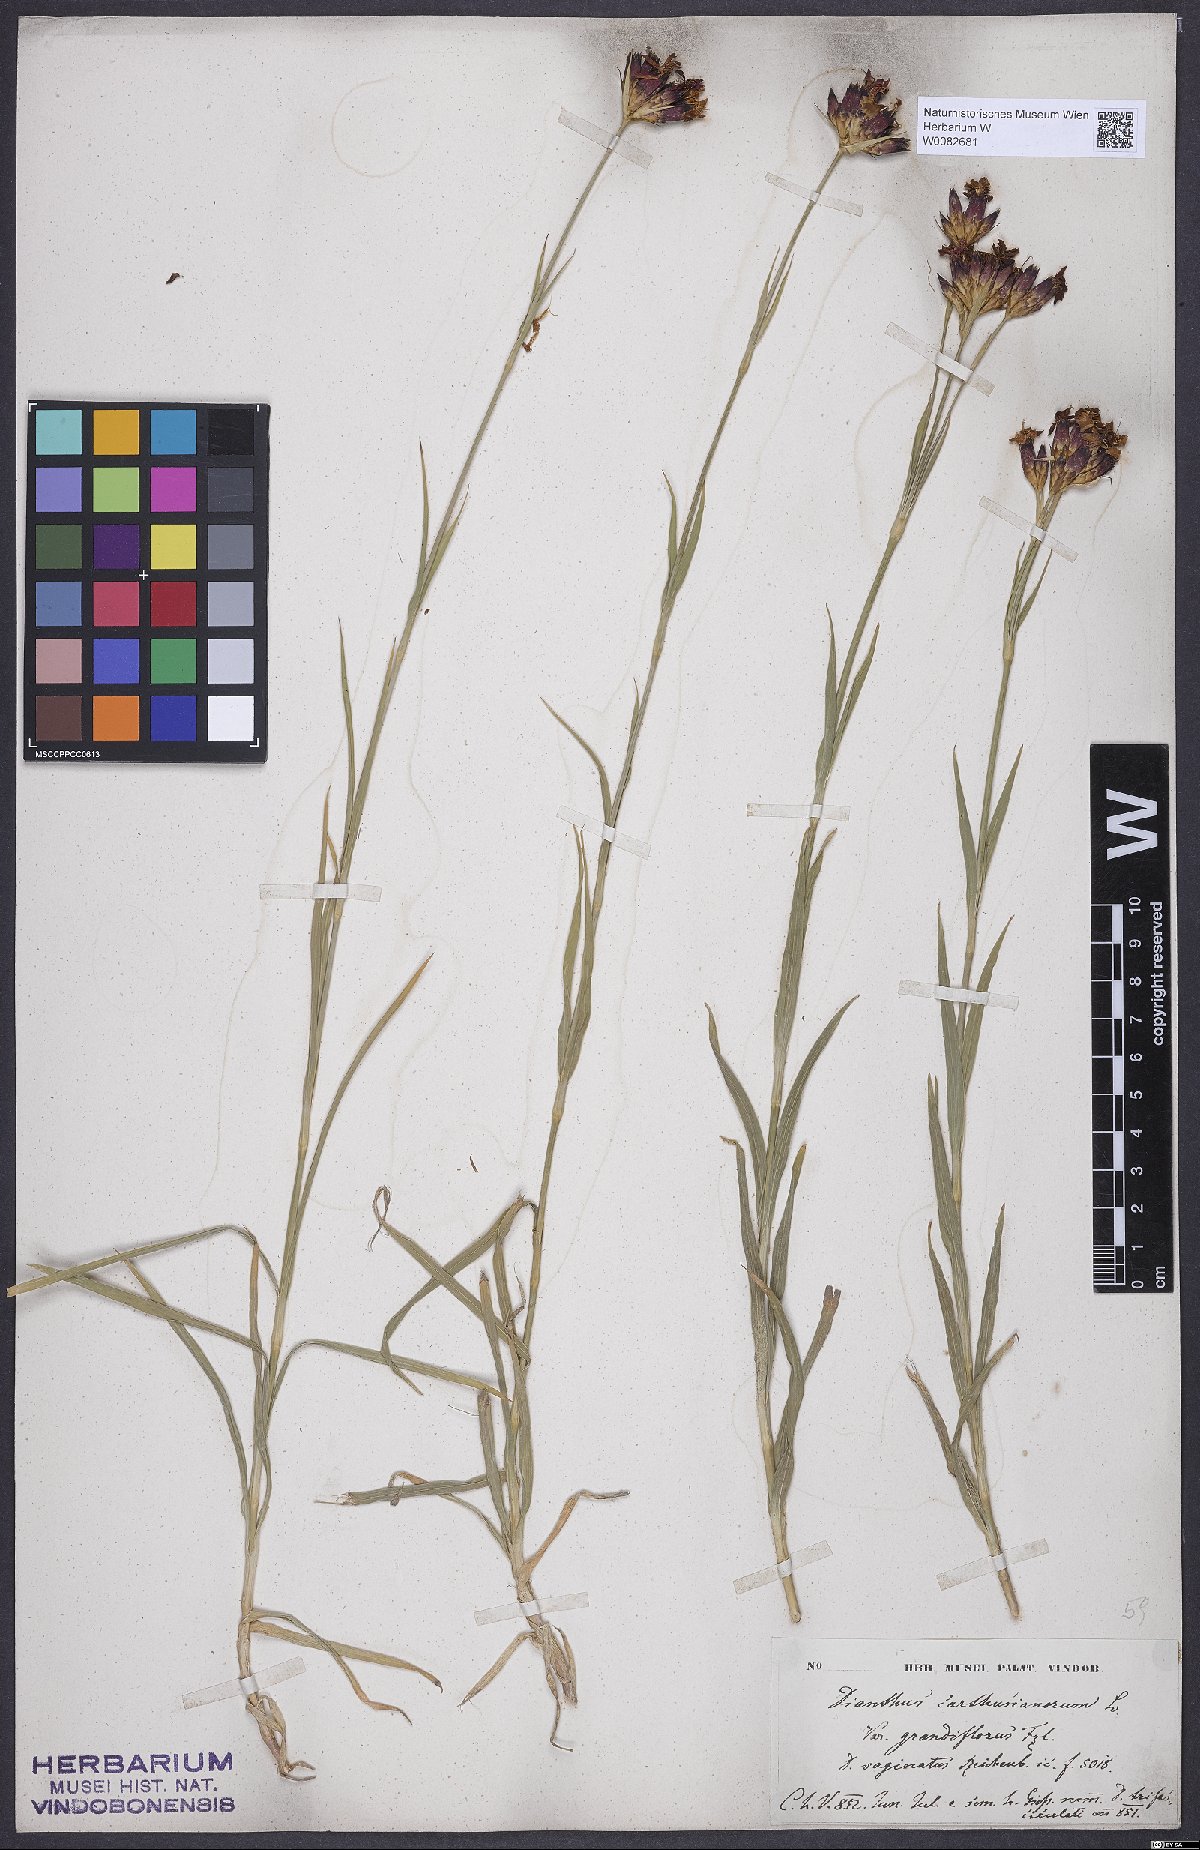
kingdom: Plantae
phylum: Tracheophyta
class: Magnoliopsida
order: Caryophyllales
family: Caryophyllaceae
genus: Dianthus
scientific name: Dianthus carthusianorum
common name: Carthusian pink
